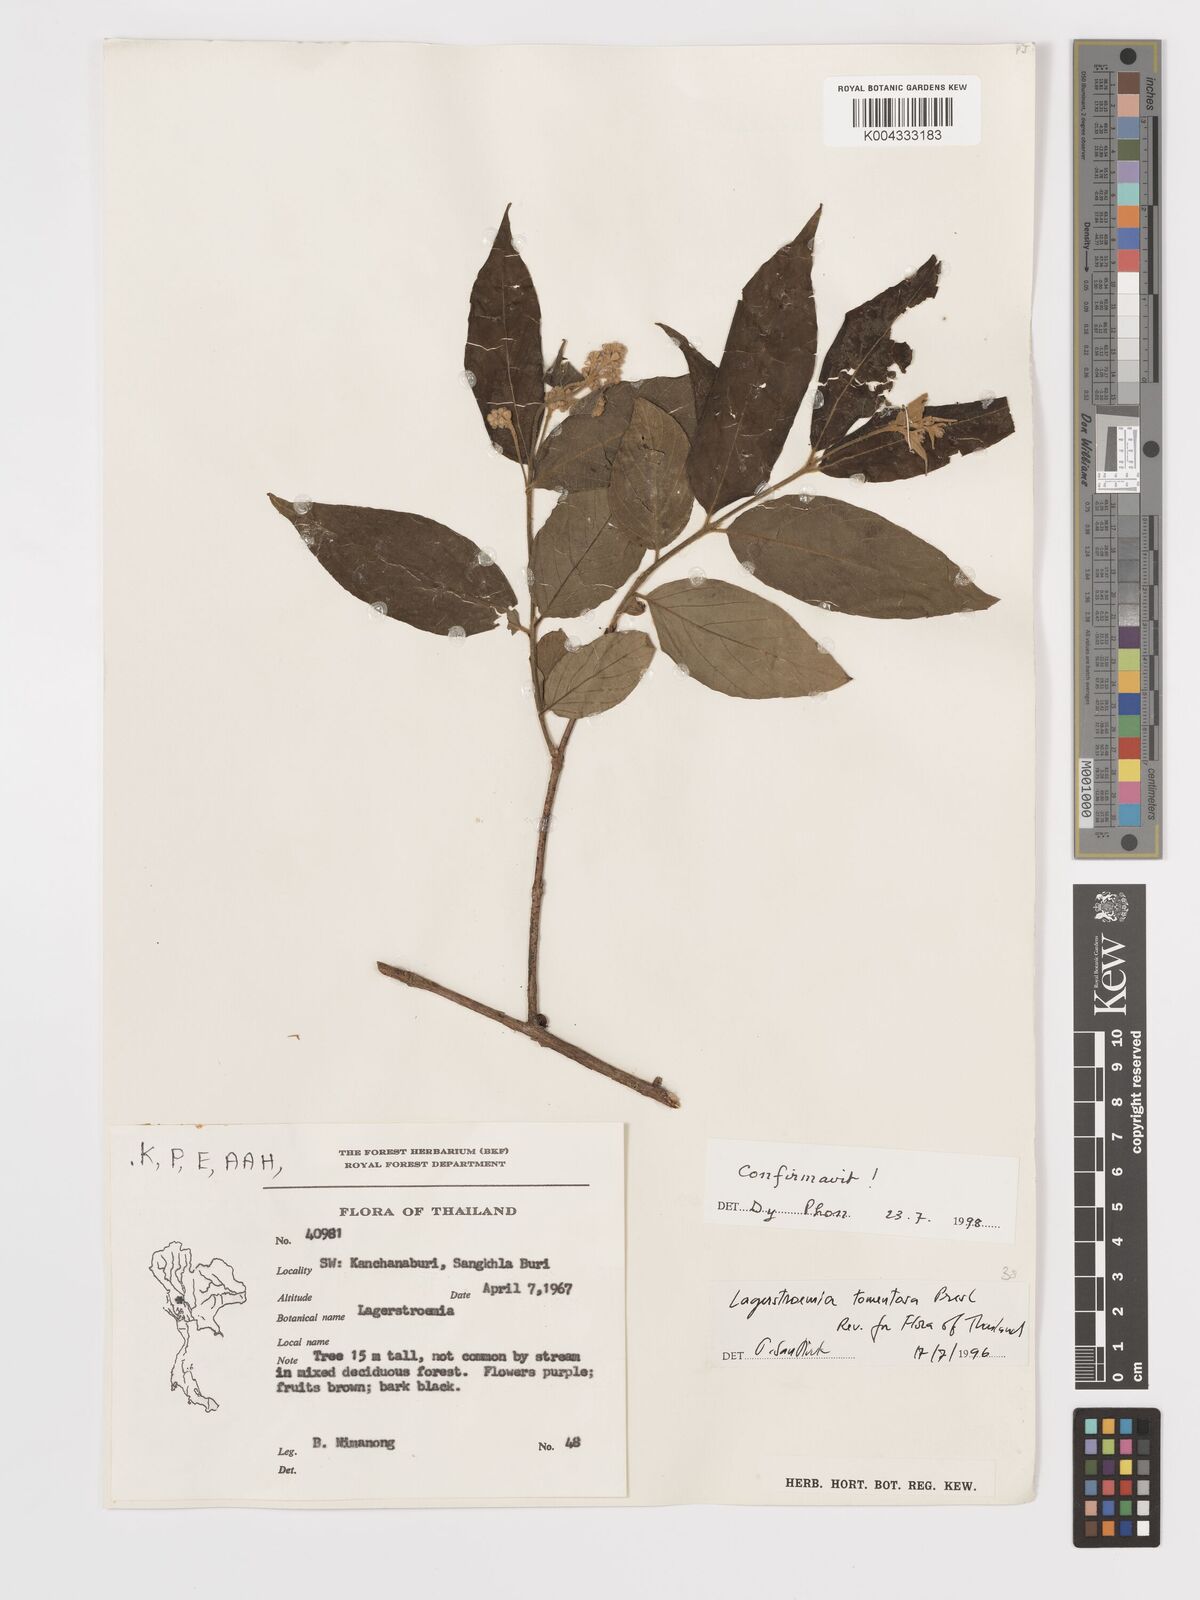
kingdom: Plantae
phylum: Tracheophyta
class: Magnoliopsida
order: Myrtales
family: Lythraceae
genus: Lagerstroemia
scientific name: Lagerstroemia tomentosa
